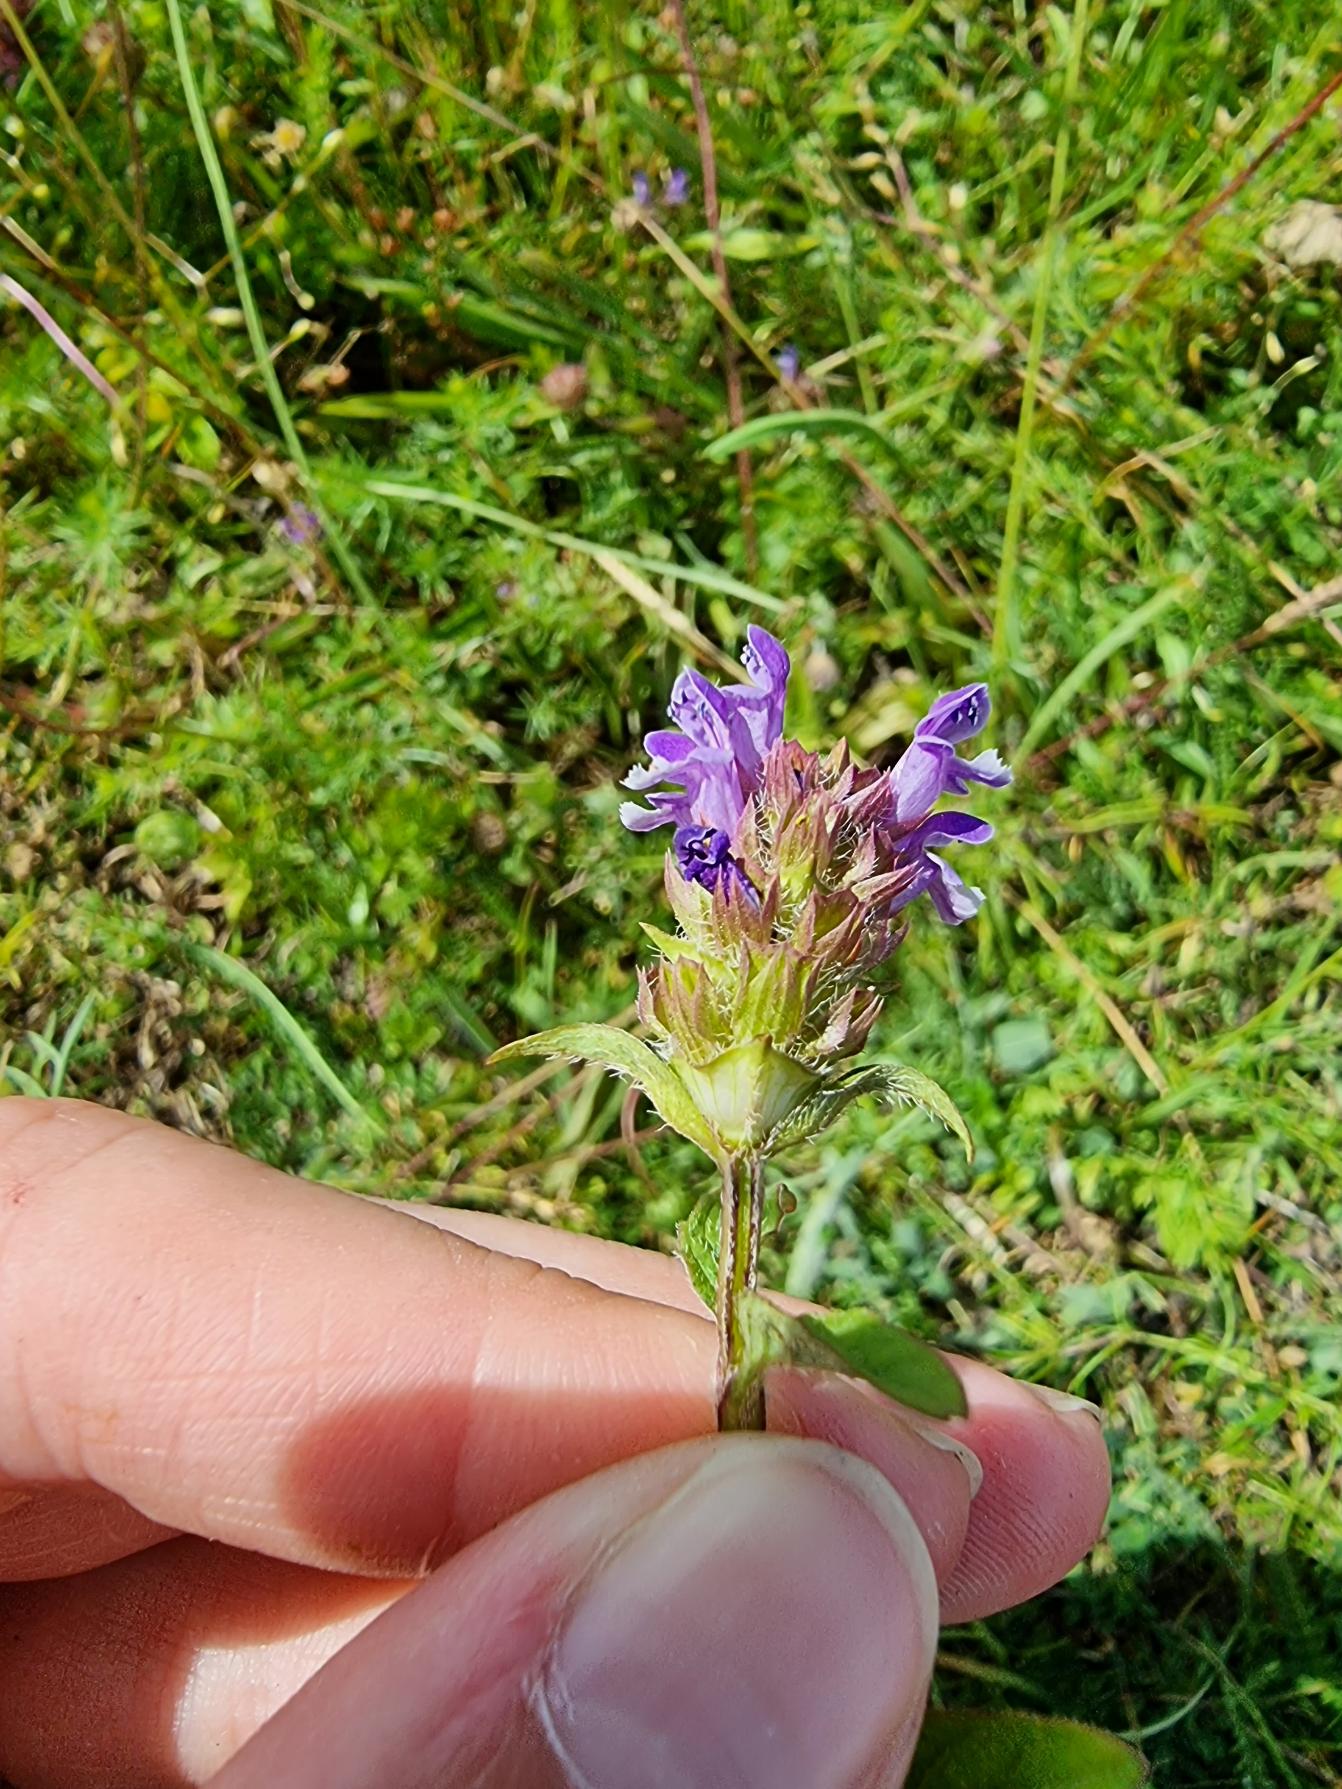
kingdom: Plantae
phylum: Tracheophyta
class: Magnoliopsida
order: Lamiales
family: Lamiaceae
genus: Prunella
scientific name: Prunella vulgaris
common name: Almindelig brunelle
